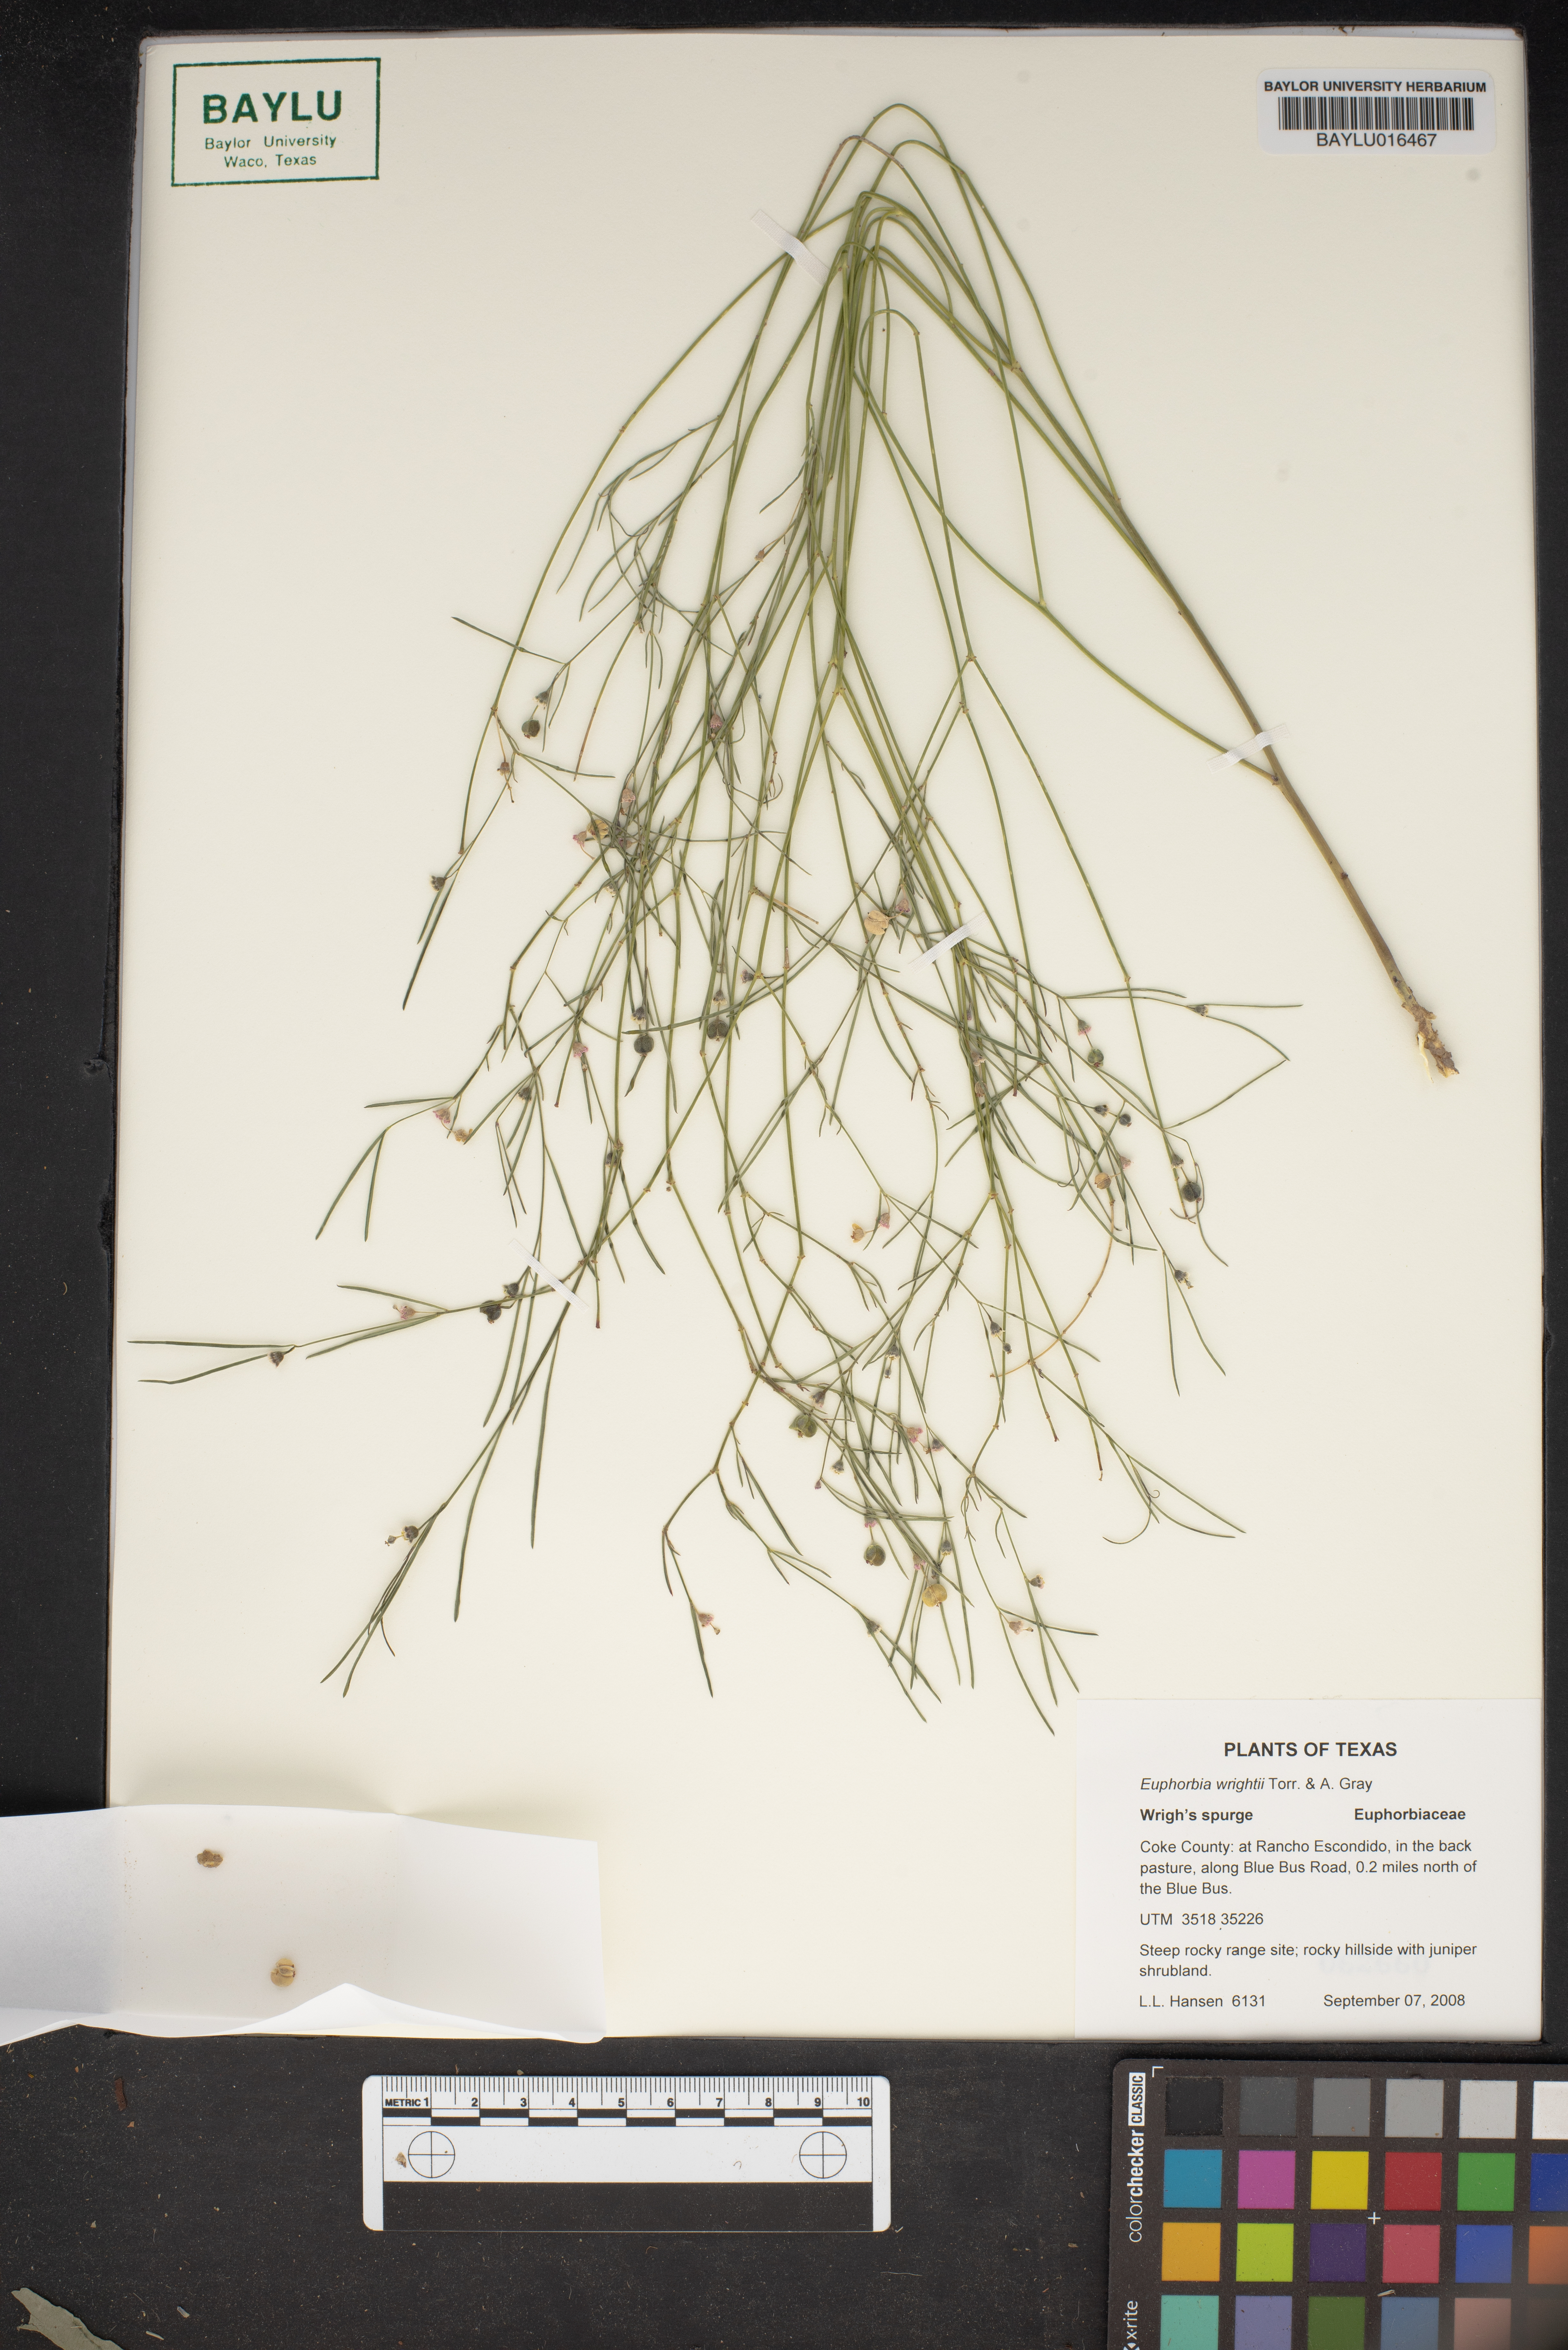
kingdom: Plantae
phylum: Tracheophyta
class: Magnoliopsida
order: Malpighiales
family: Euphorbiaceae
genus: Euphorbia
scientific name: Euphorbia wrightii
